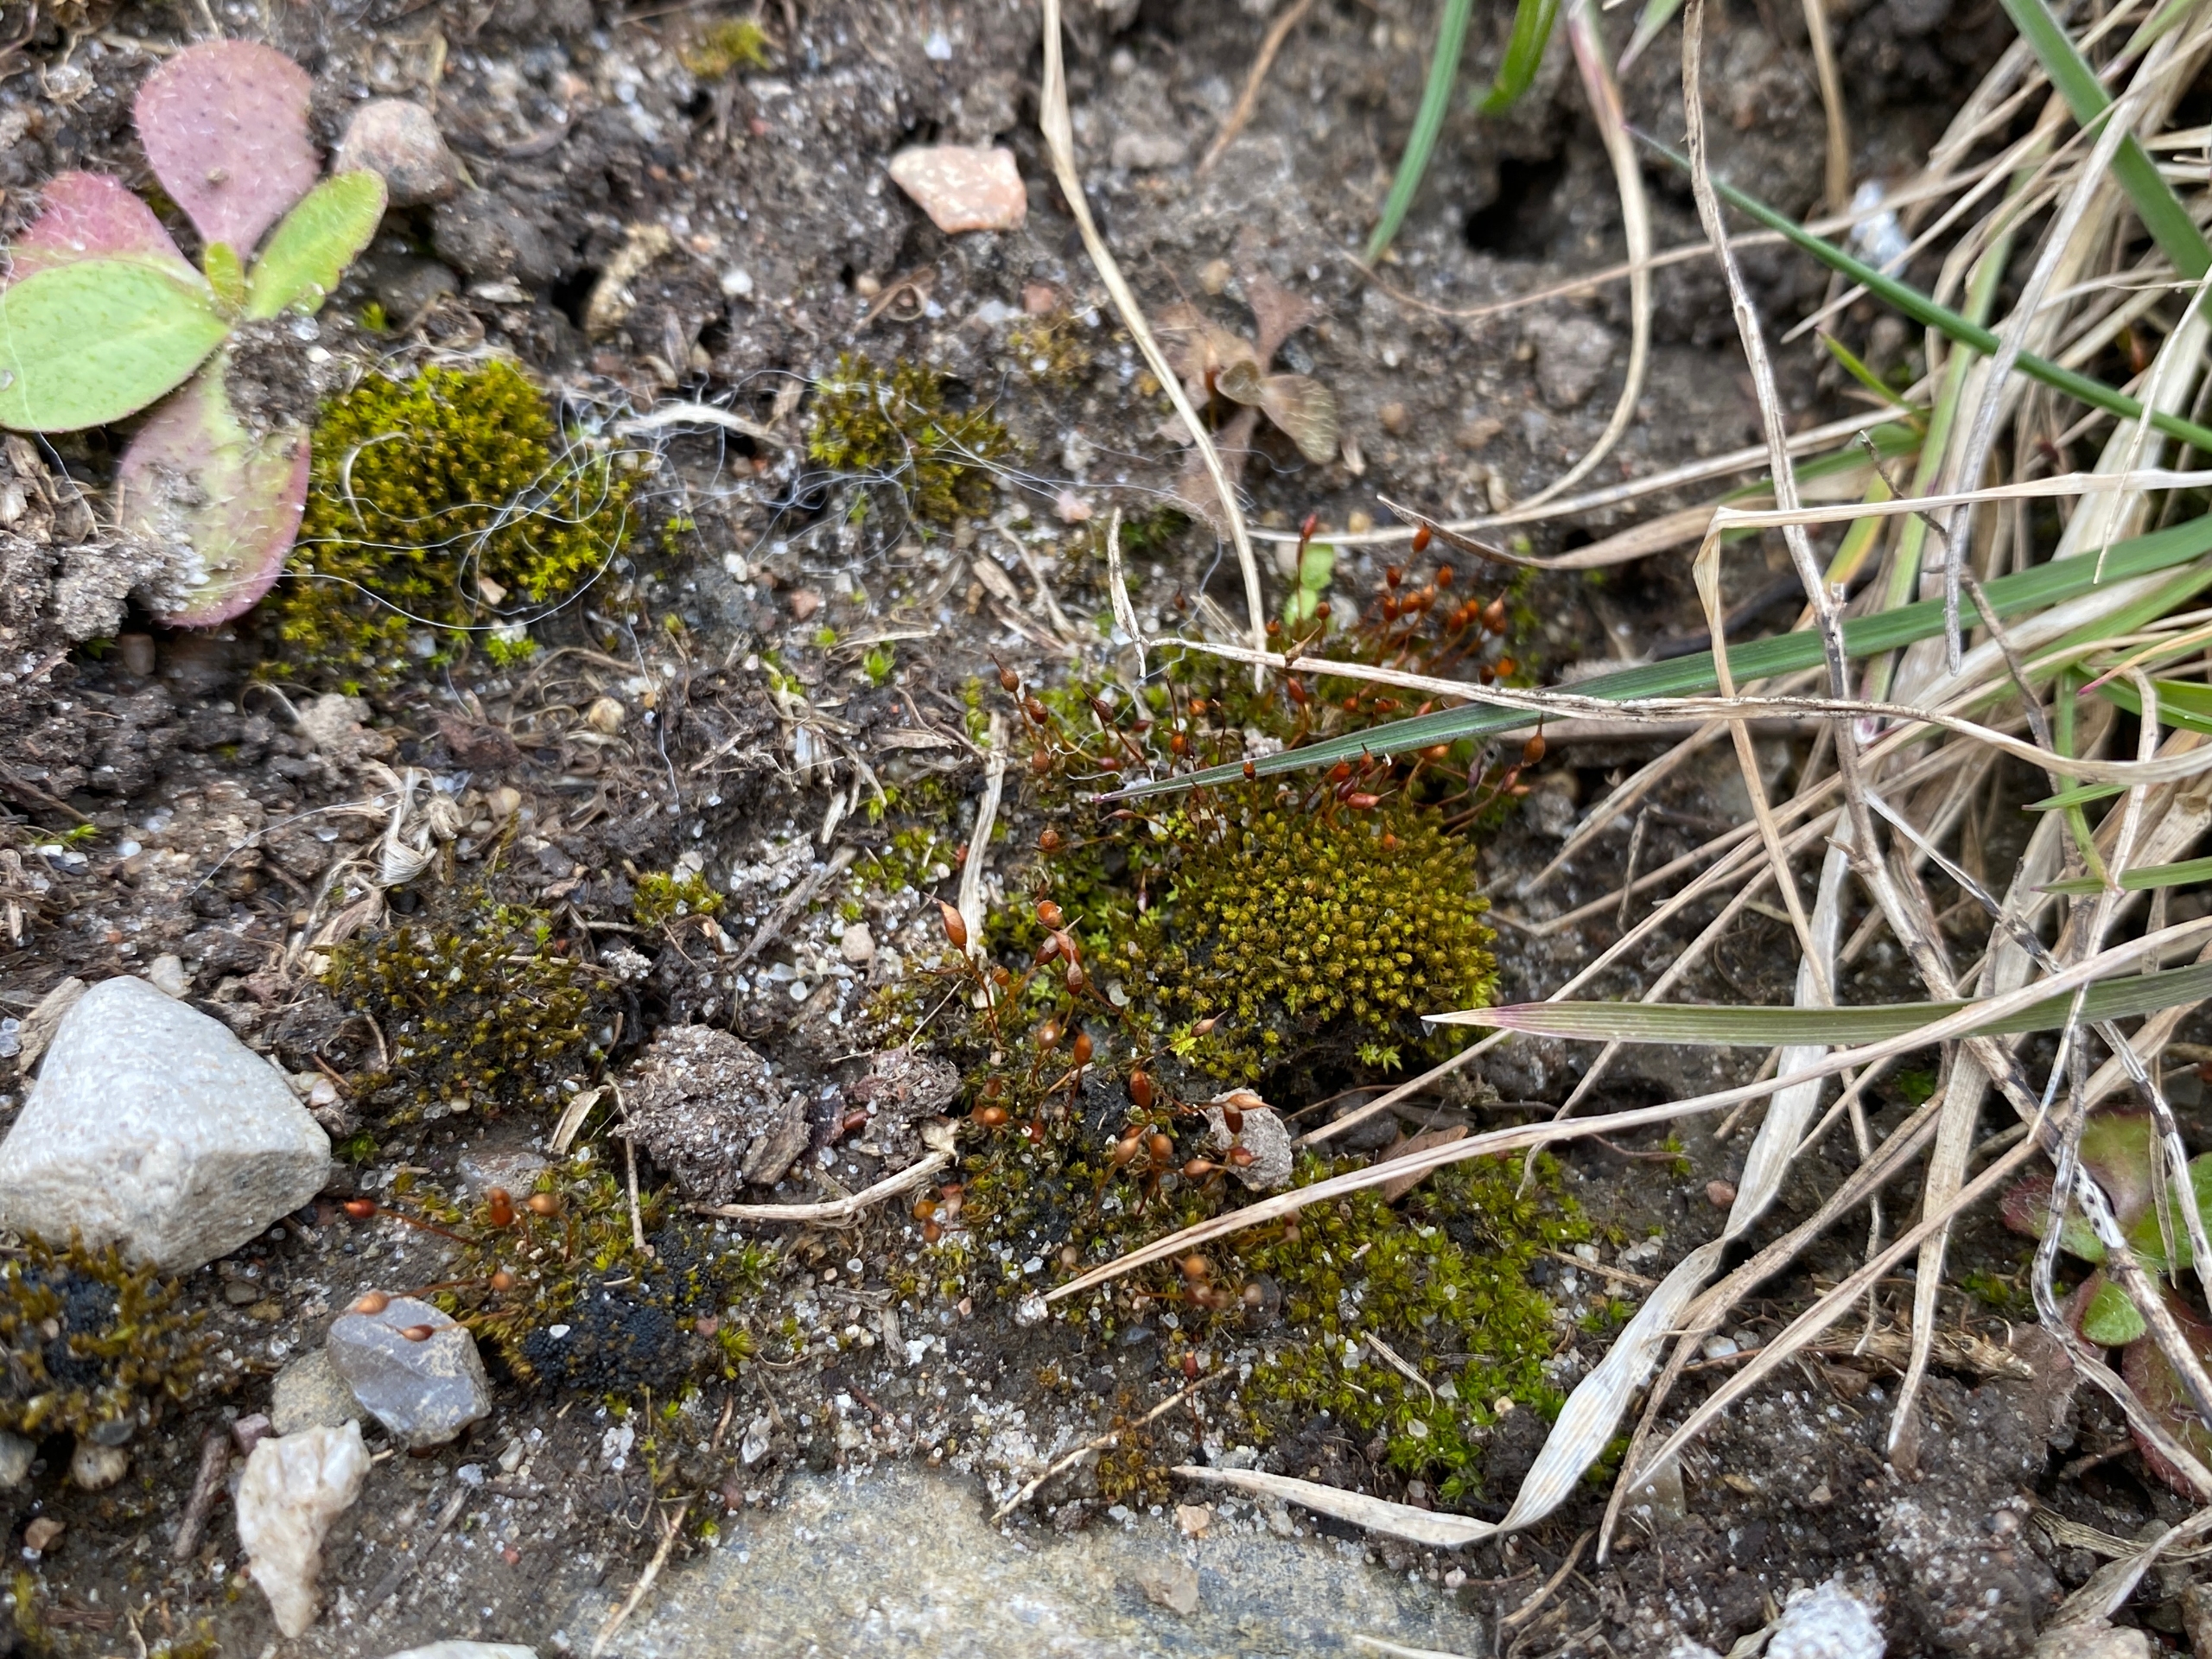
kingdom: Plantae
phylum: Bryophyta
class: Bryopsida
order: Pottiales
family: Pottiaceae
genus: Tortula
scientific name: Tortula caucasica
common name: Mark-bægermos
